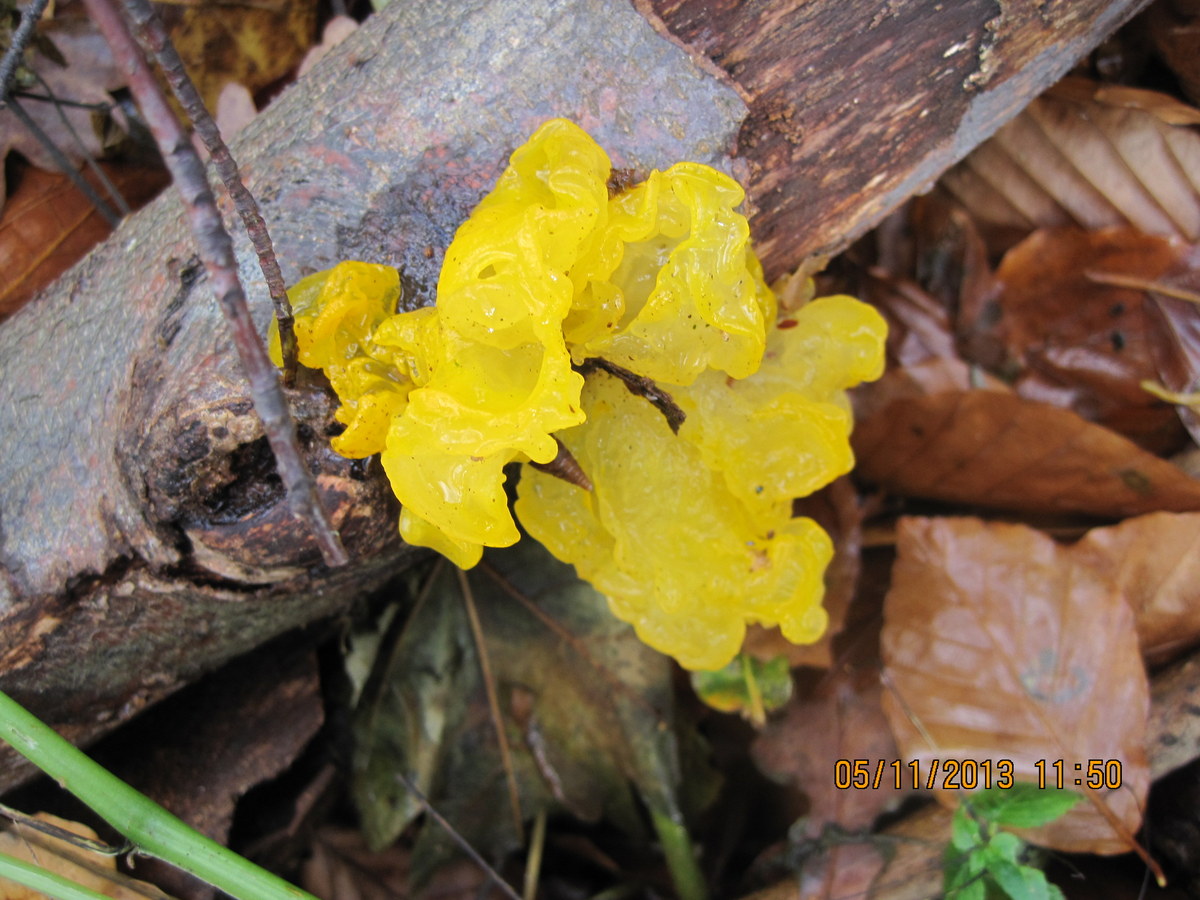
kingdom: Fungi
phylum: Basidiomycota
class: Tremellomycetes
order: Tremellales
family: Tremellaceae
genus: Tremella
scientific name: Tremella mesenterica
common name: gul bævresvamp
